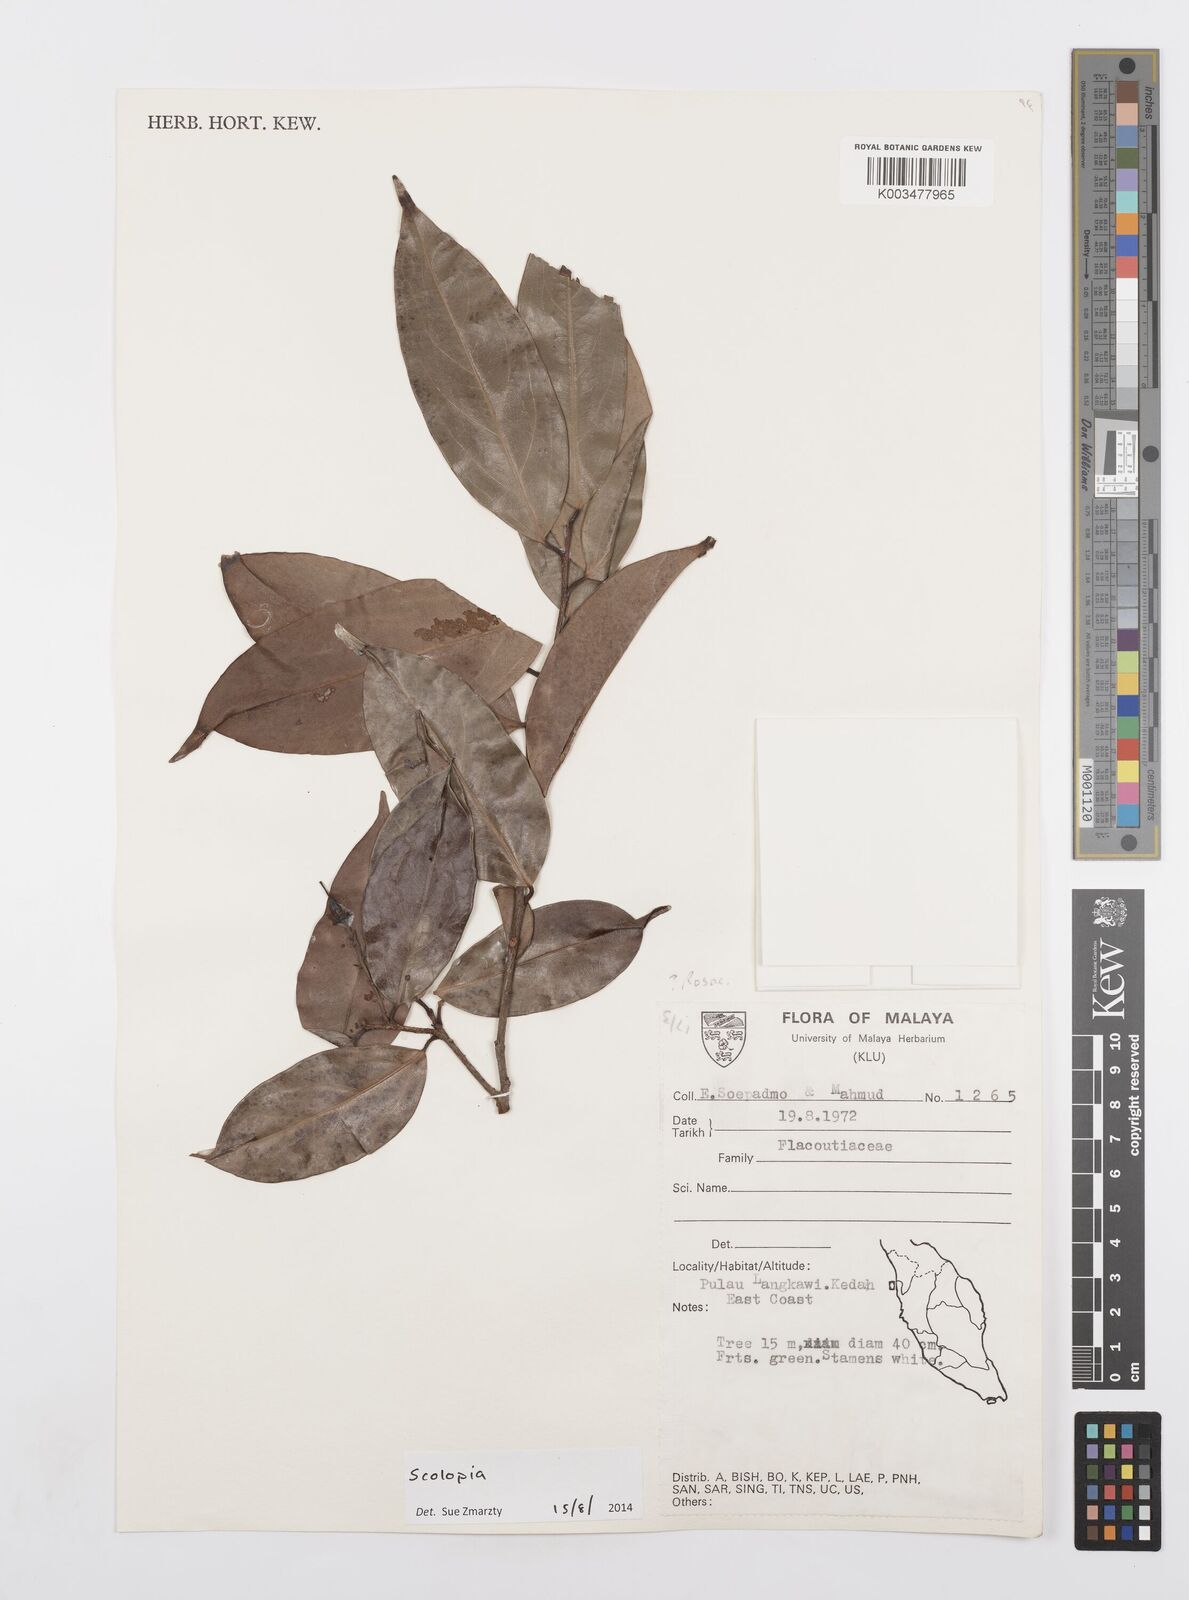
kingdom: Plantae
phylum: Tracheophyta
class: Magnoliopsida
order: Malpighiales
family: Salicaceae
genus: Scolopia
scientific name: Scolopia
